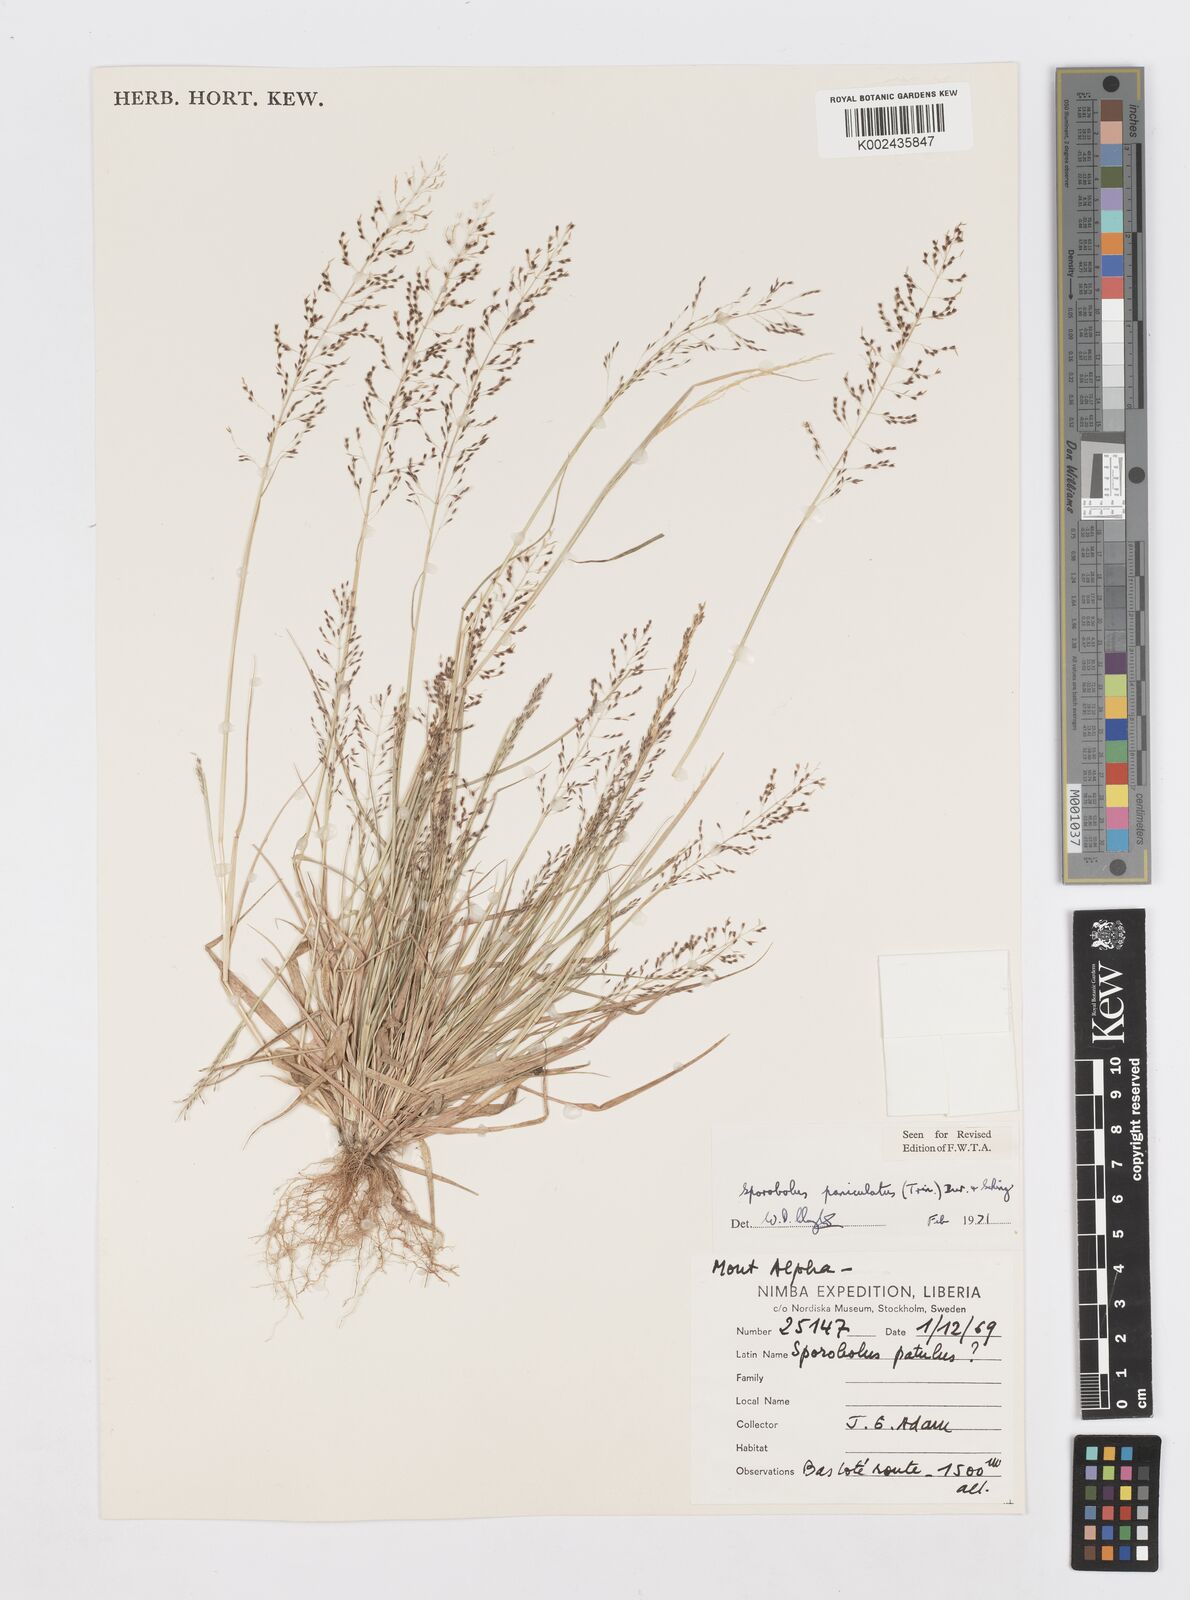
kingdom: Plantae
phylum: Tracheophyta
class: Liliopsida
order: Poales
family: Poaceae
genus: Sporobolus
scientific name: Sporobolus paniculatus
